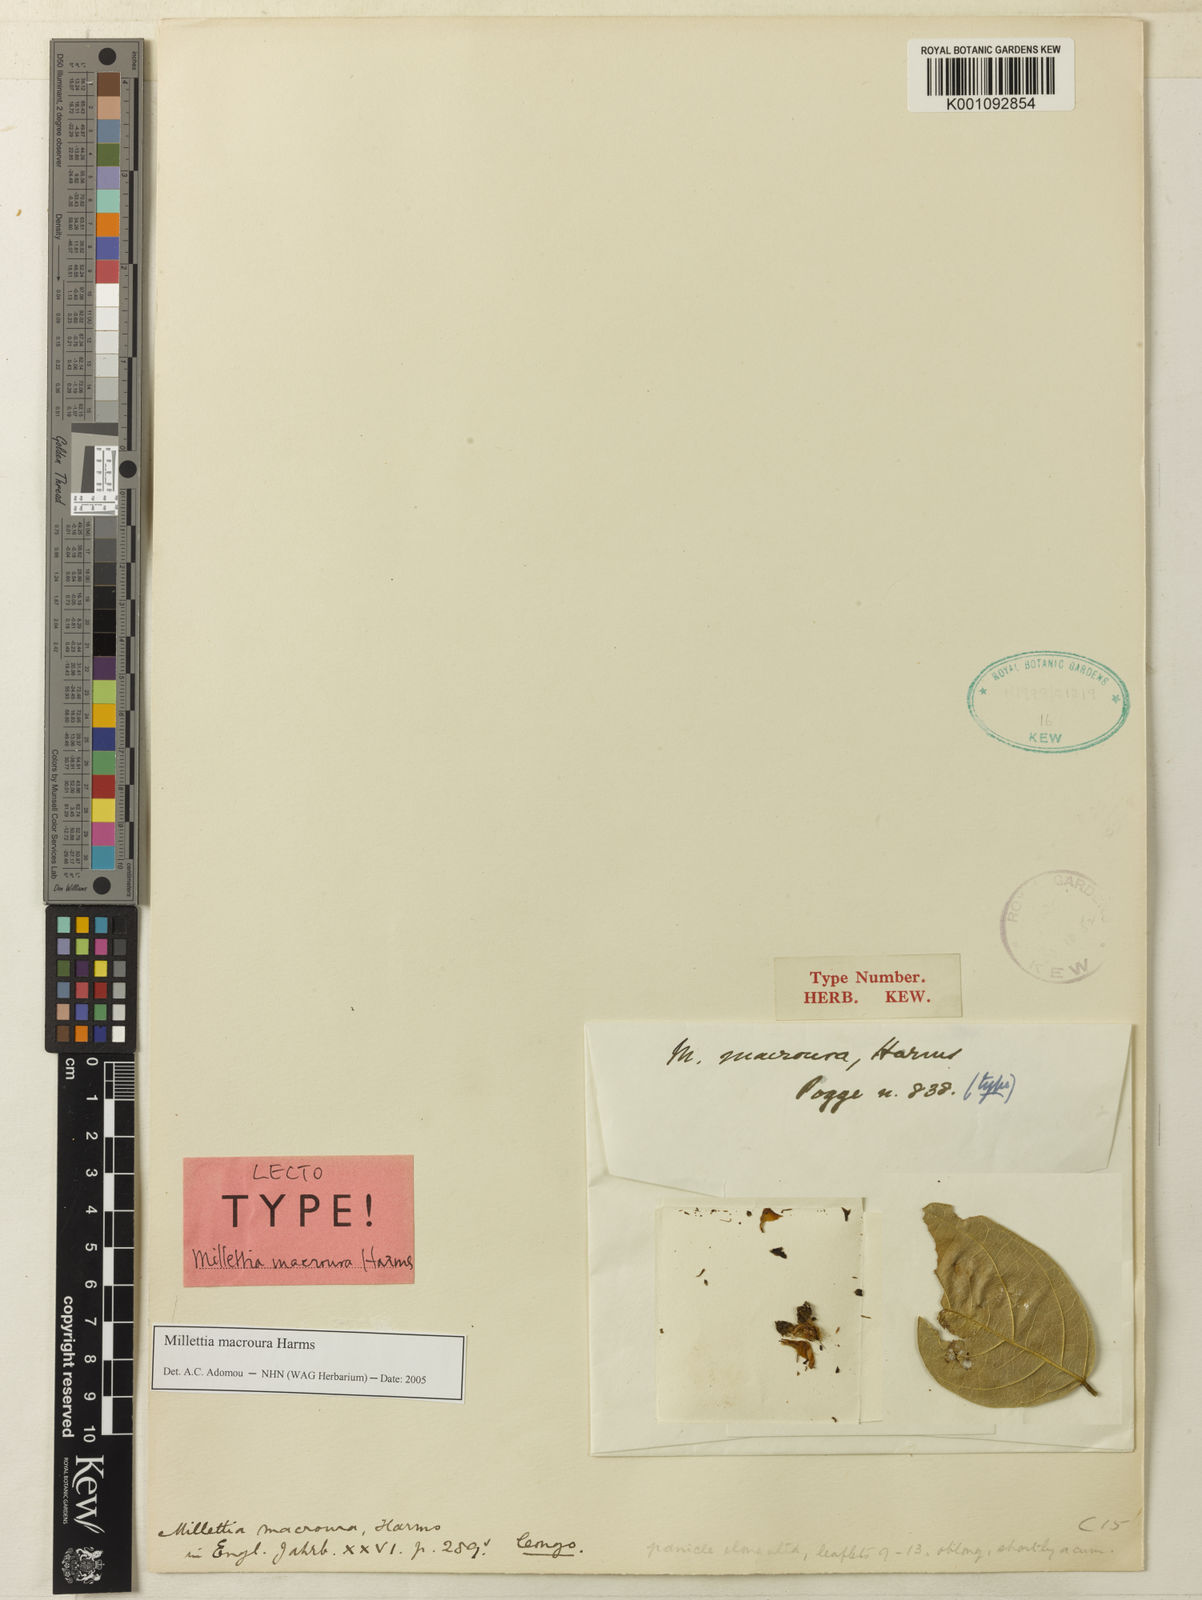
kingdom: Plantae
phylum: Tracheophyta
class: Magnoliopsida
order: Fabales
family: Fabaceae
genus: Millettia
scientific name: Millettia macroura
